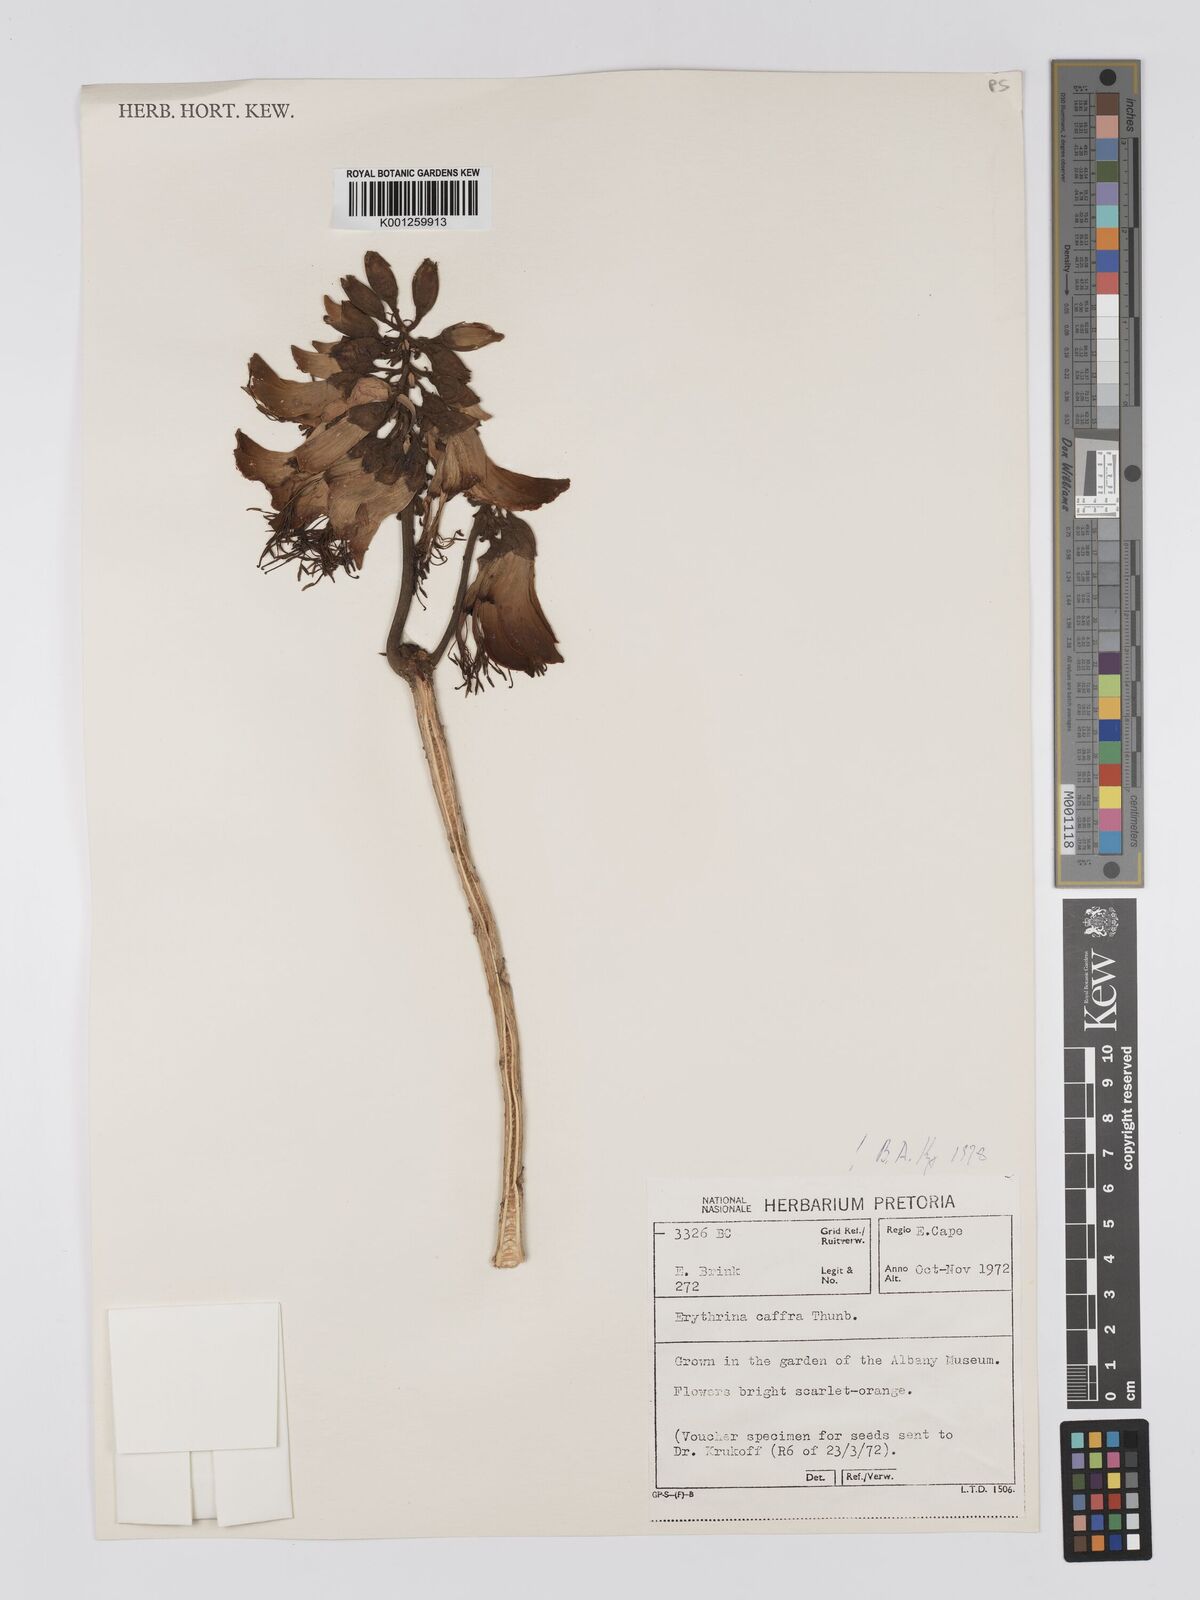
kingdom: Plantae
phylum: Tracheophyta
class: Magnoliopsida
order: Fabales
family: Fabaceae
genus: Erythrina
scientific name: Erythrina caffra
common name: Coast coral tree
